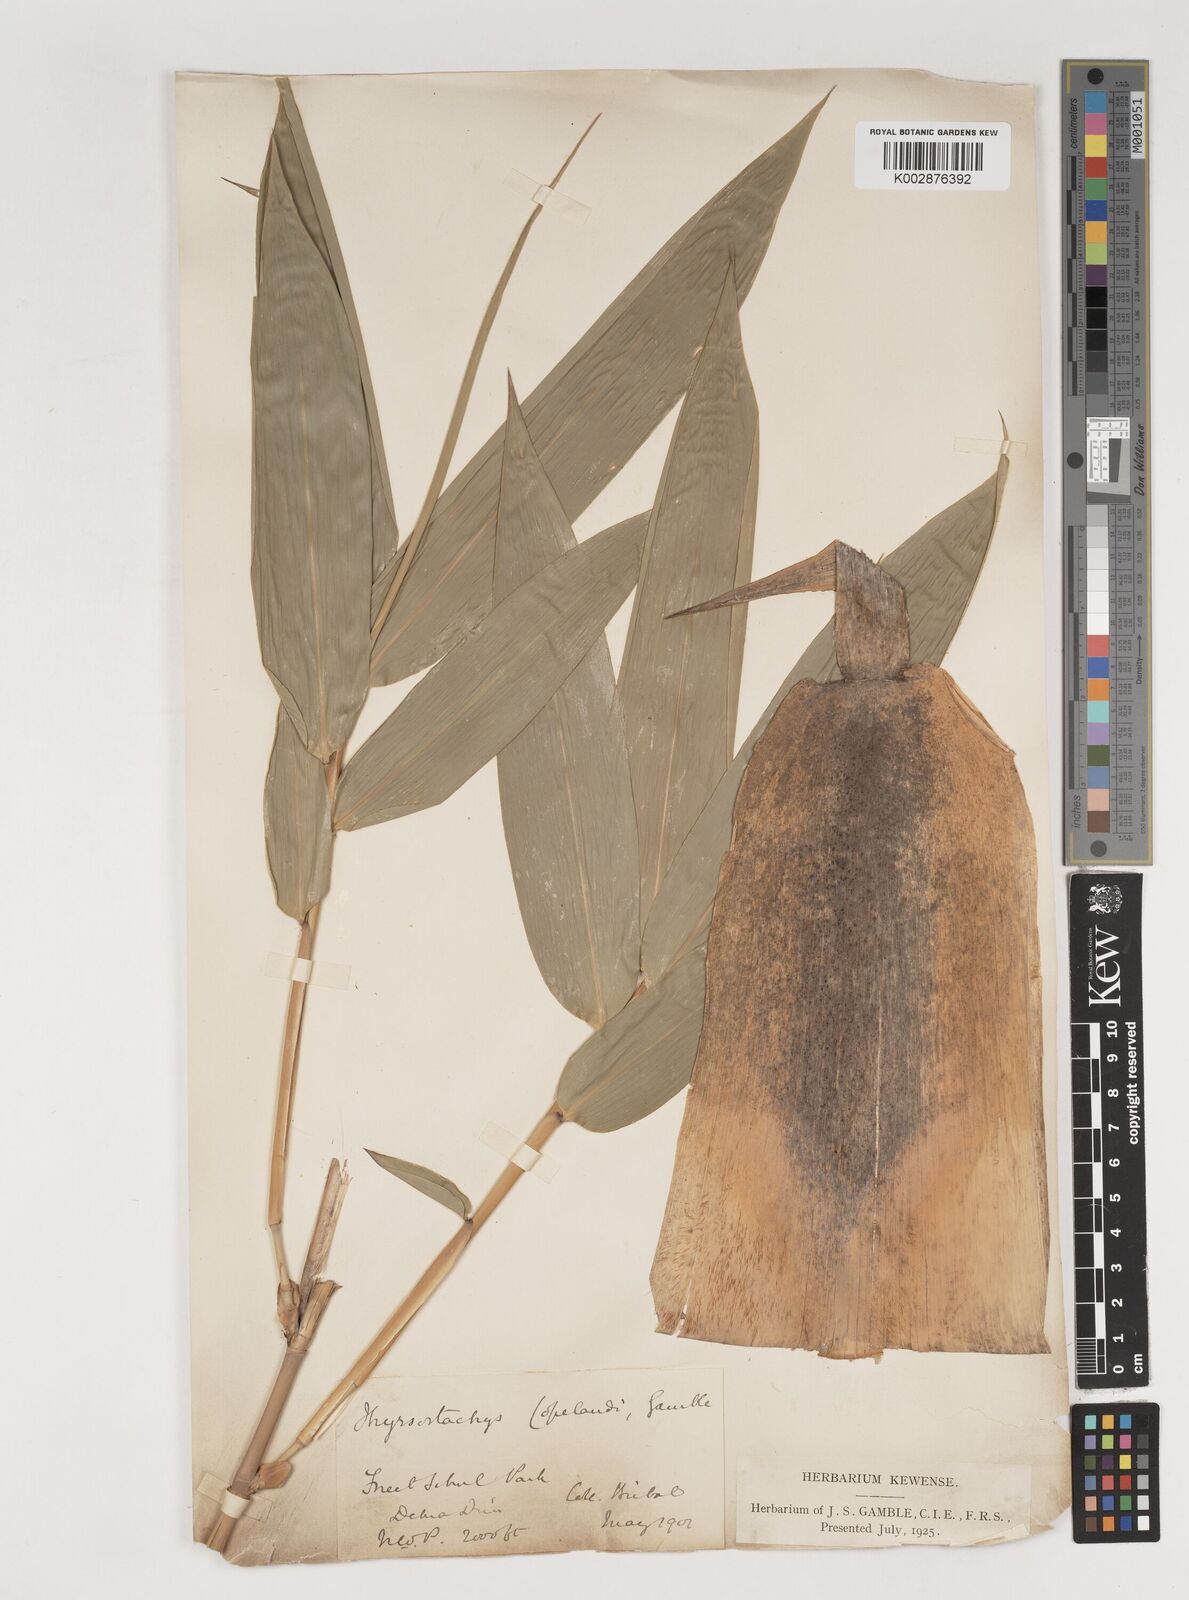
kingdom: Plantae
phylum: Tracheophyta
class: Liliopsida
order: Poales
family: Poaceae
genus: Bambusa
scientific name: Bambusa copelandii
